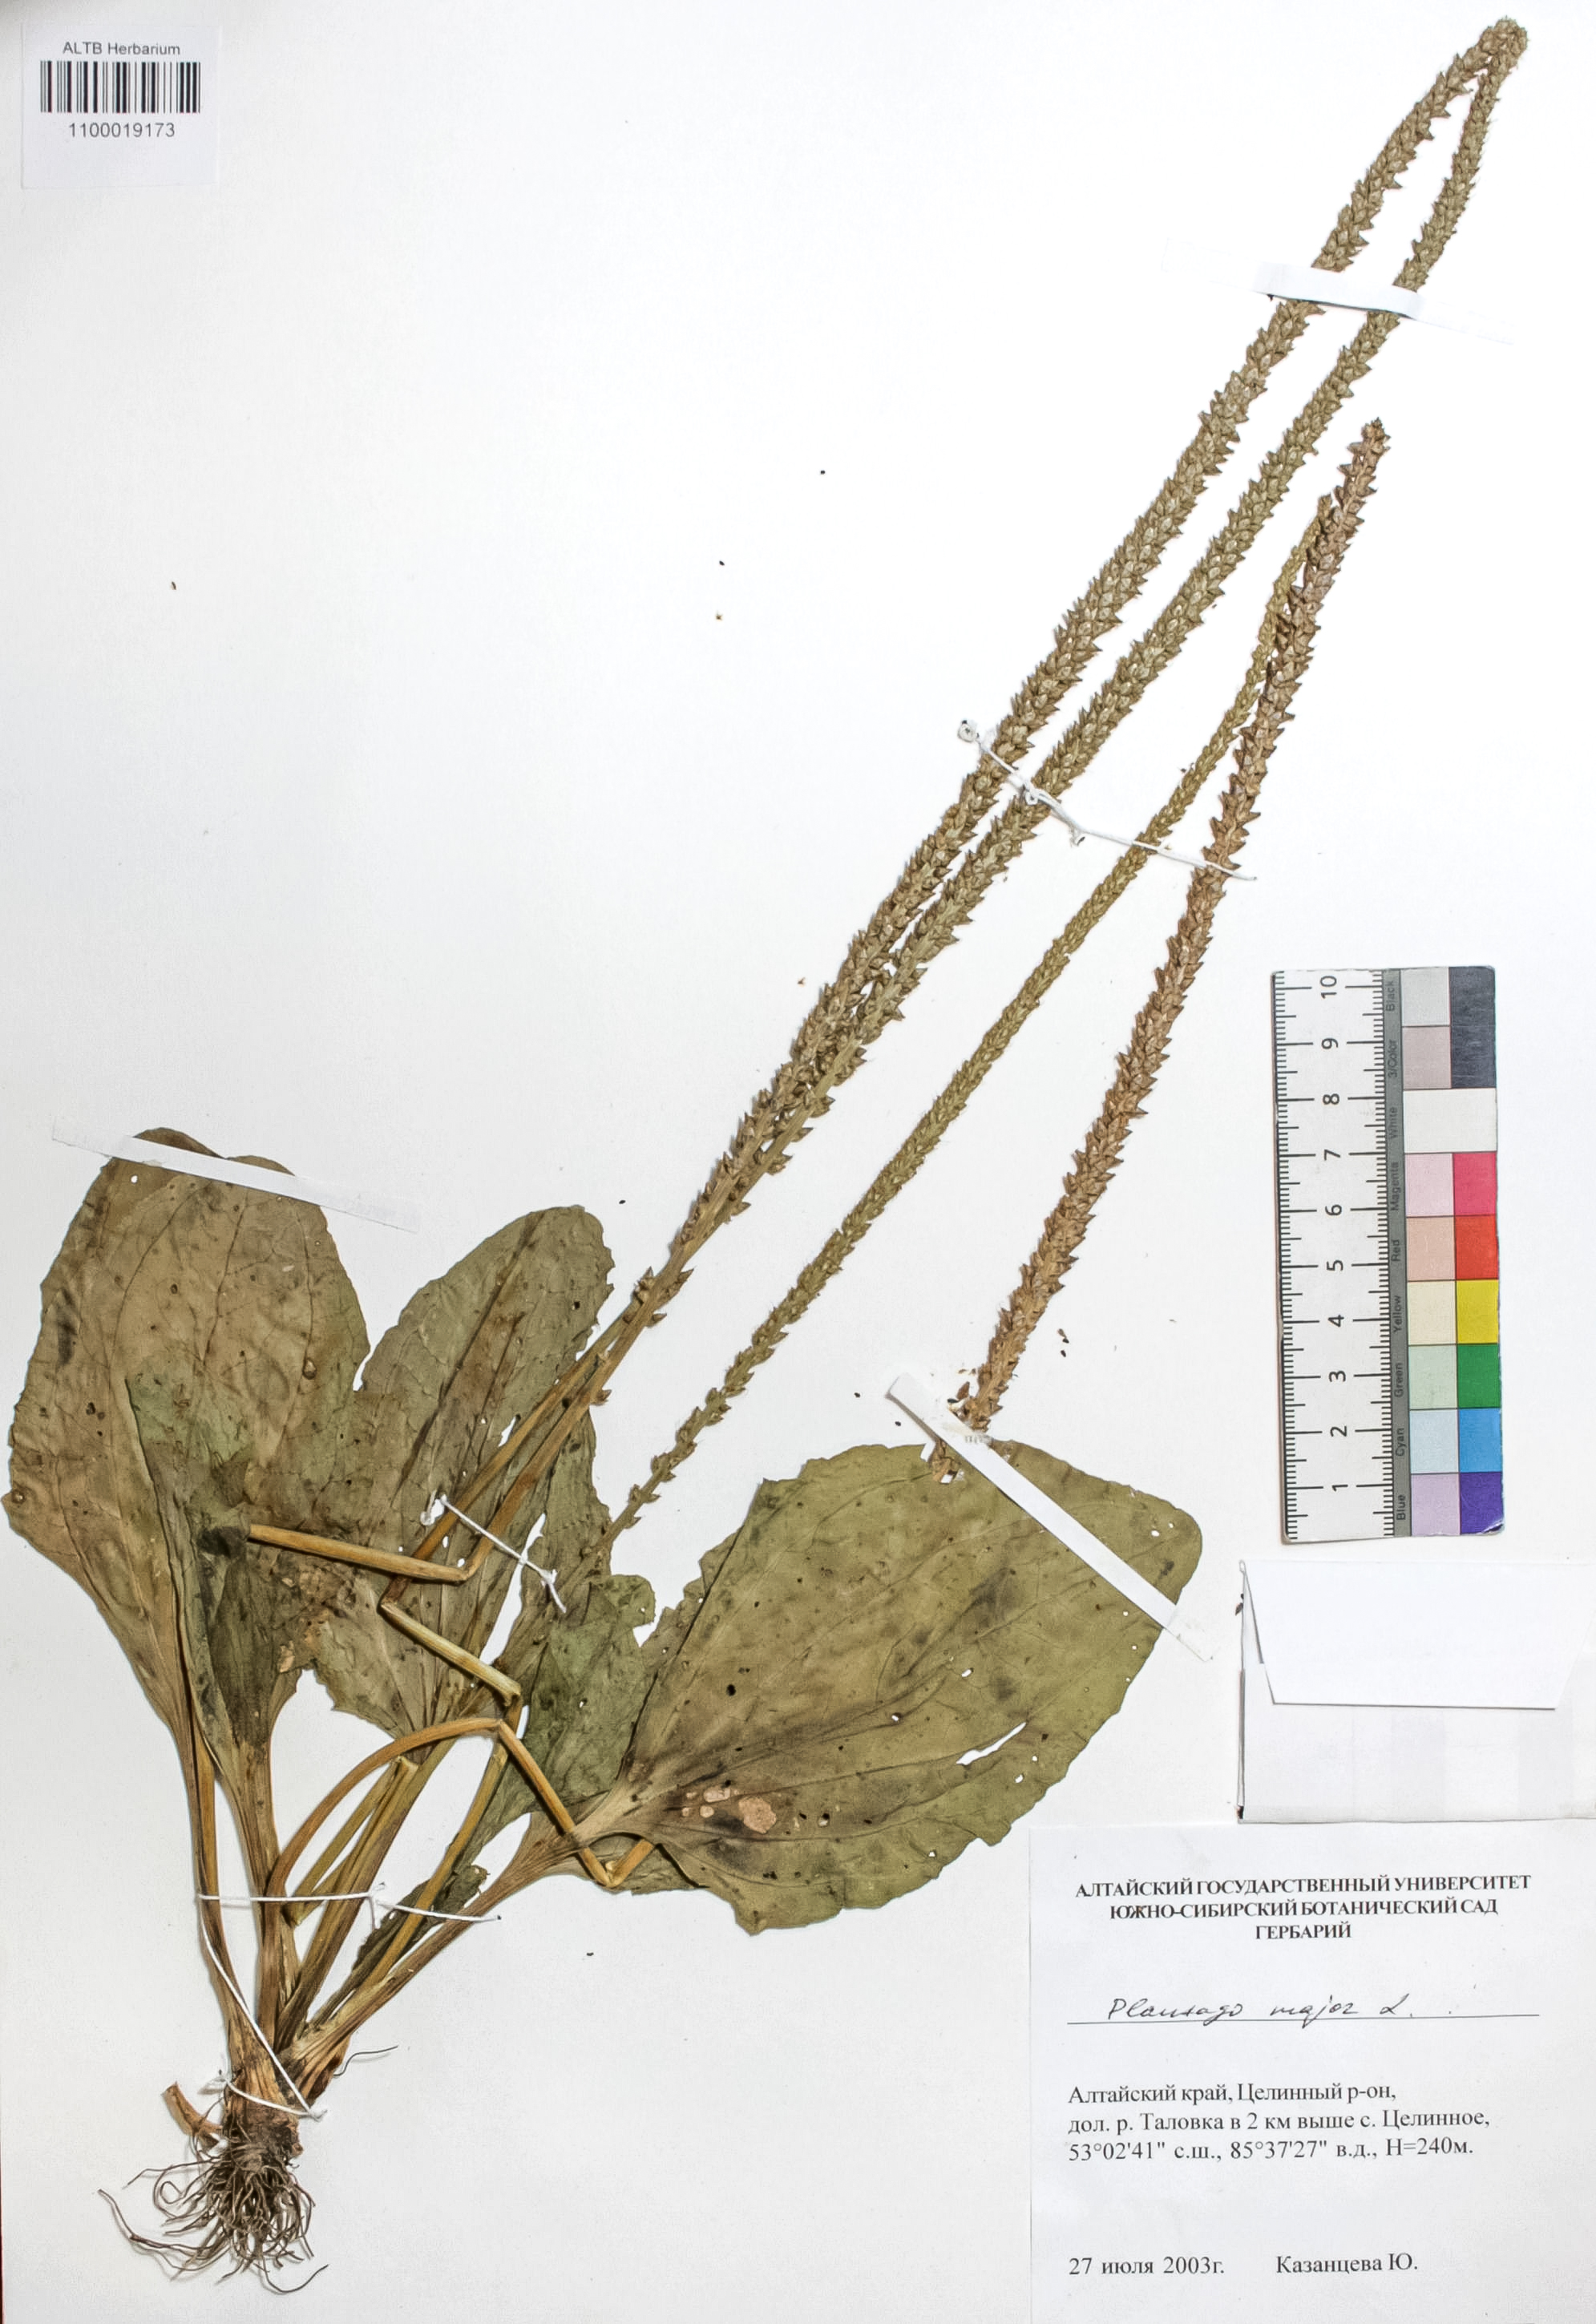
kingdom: Plantae
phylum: Tracheophyta
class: Magnoliopsida
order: Lamiales
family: Plantaginaceae
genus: Plantago
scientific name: Plantago major
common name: Common plantain
